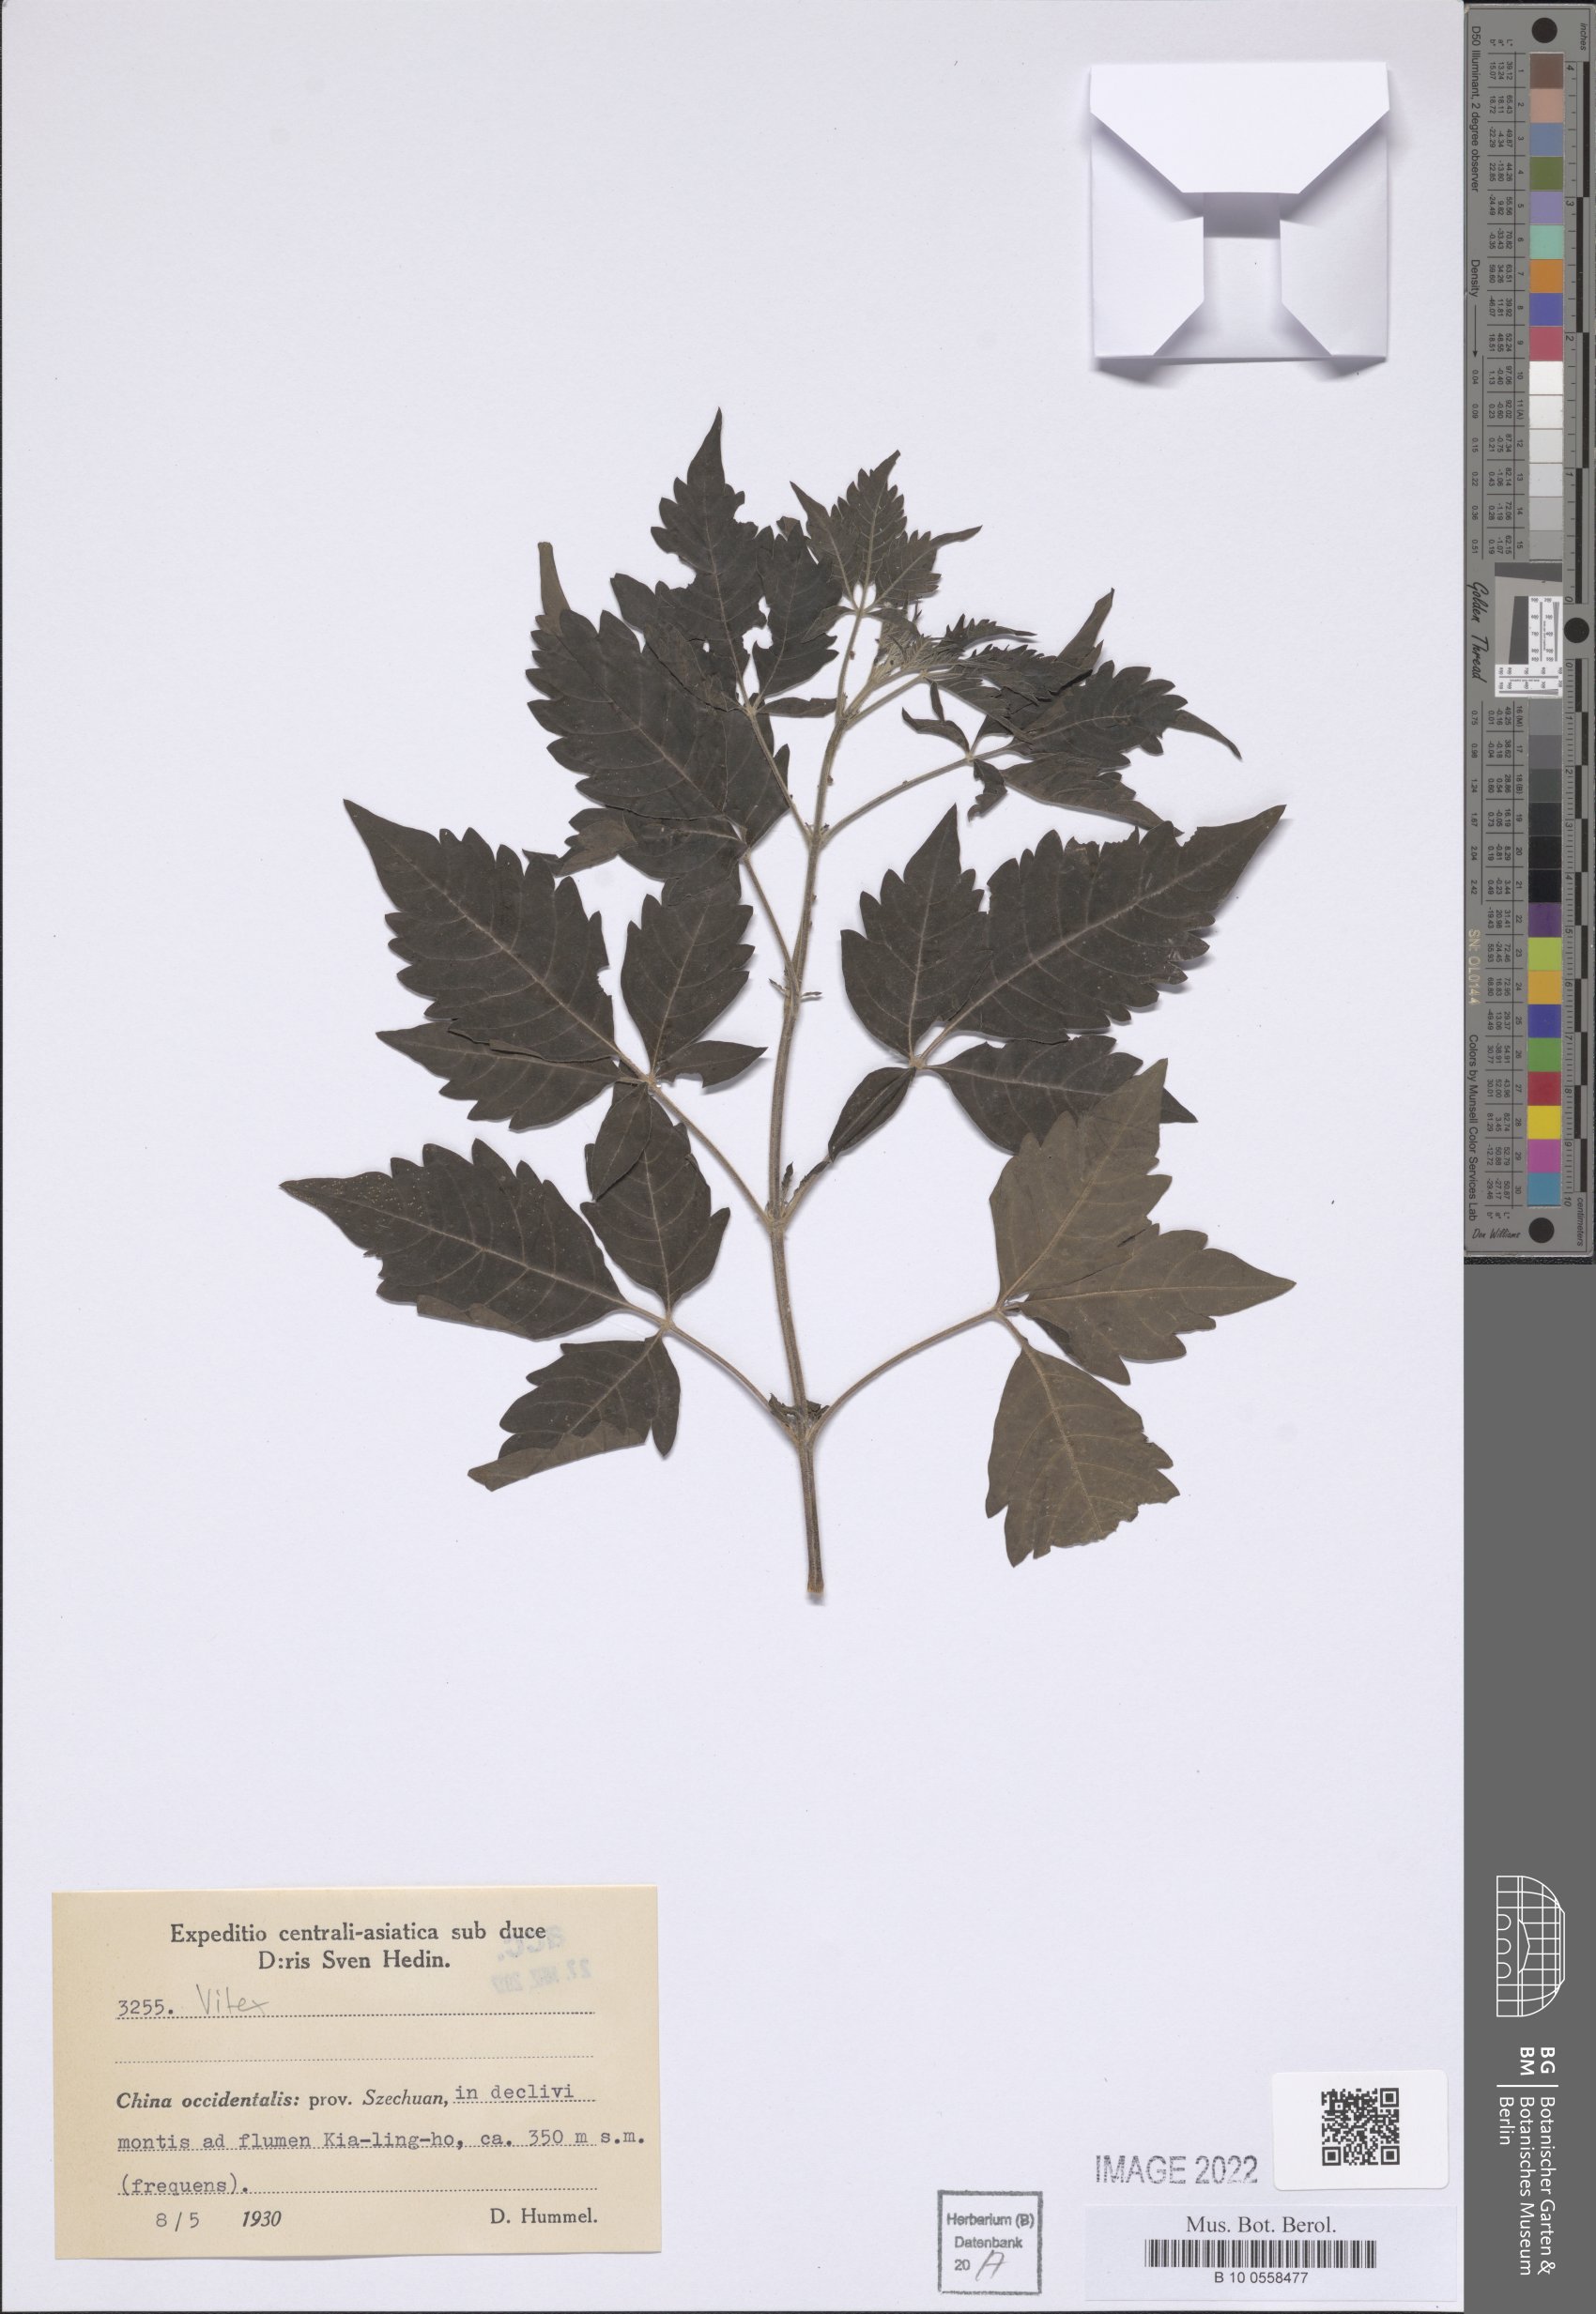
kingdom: Plantae
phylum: Tracheophyta
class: Magnoliopsida
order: Lamiales
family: Lamiaceae
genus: Vitex
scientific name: Vitex
